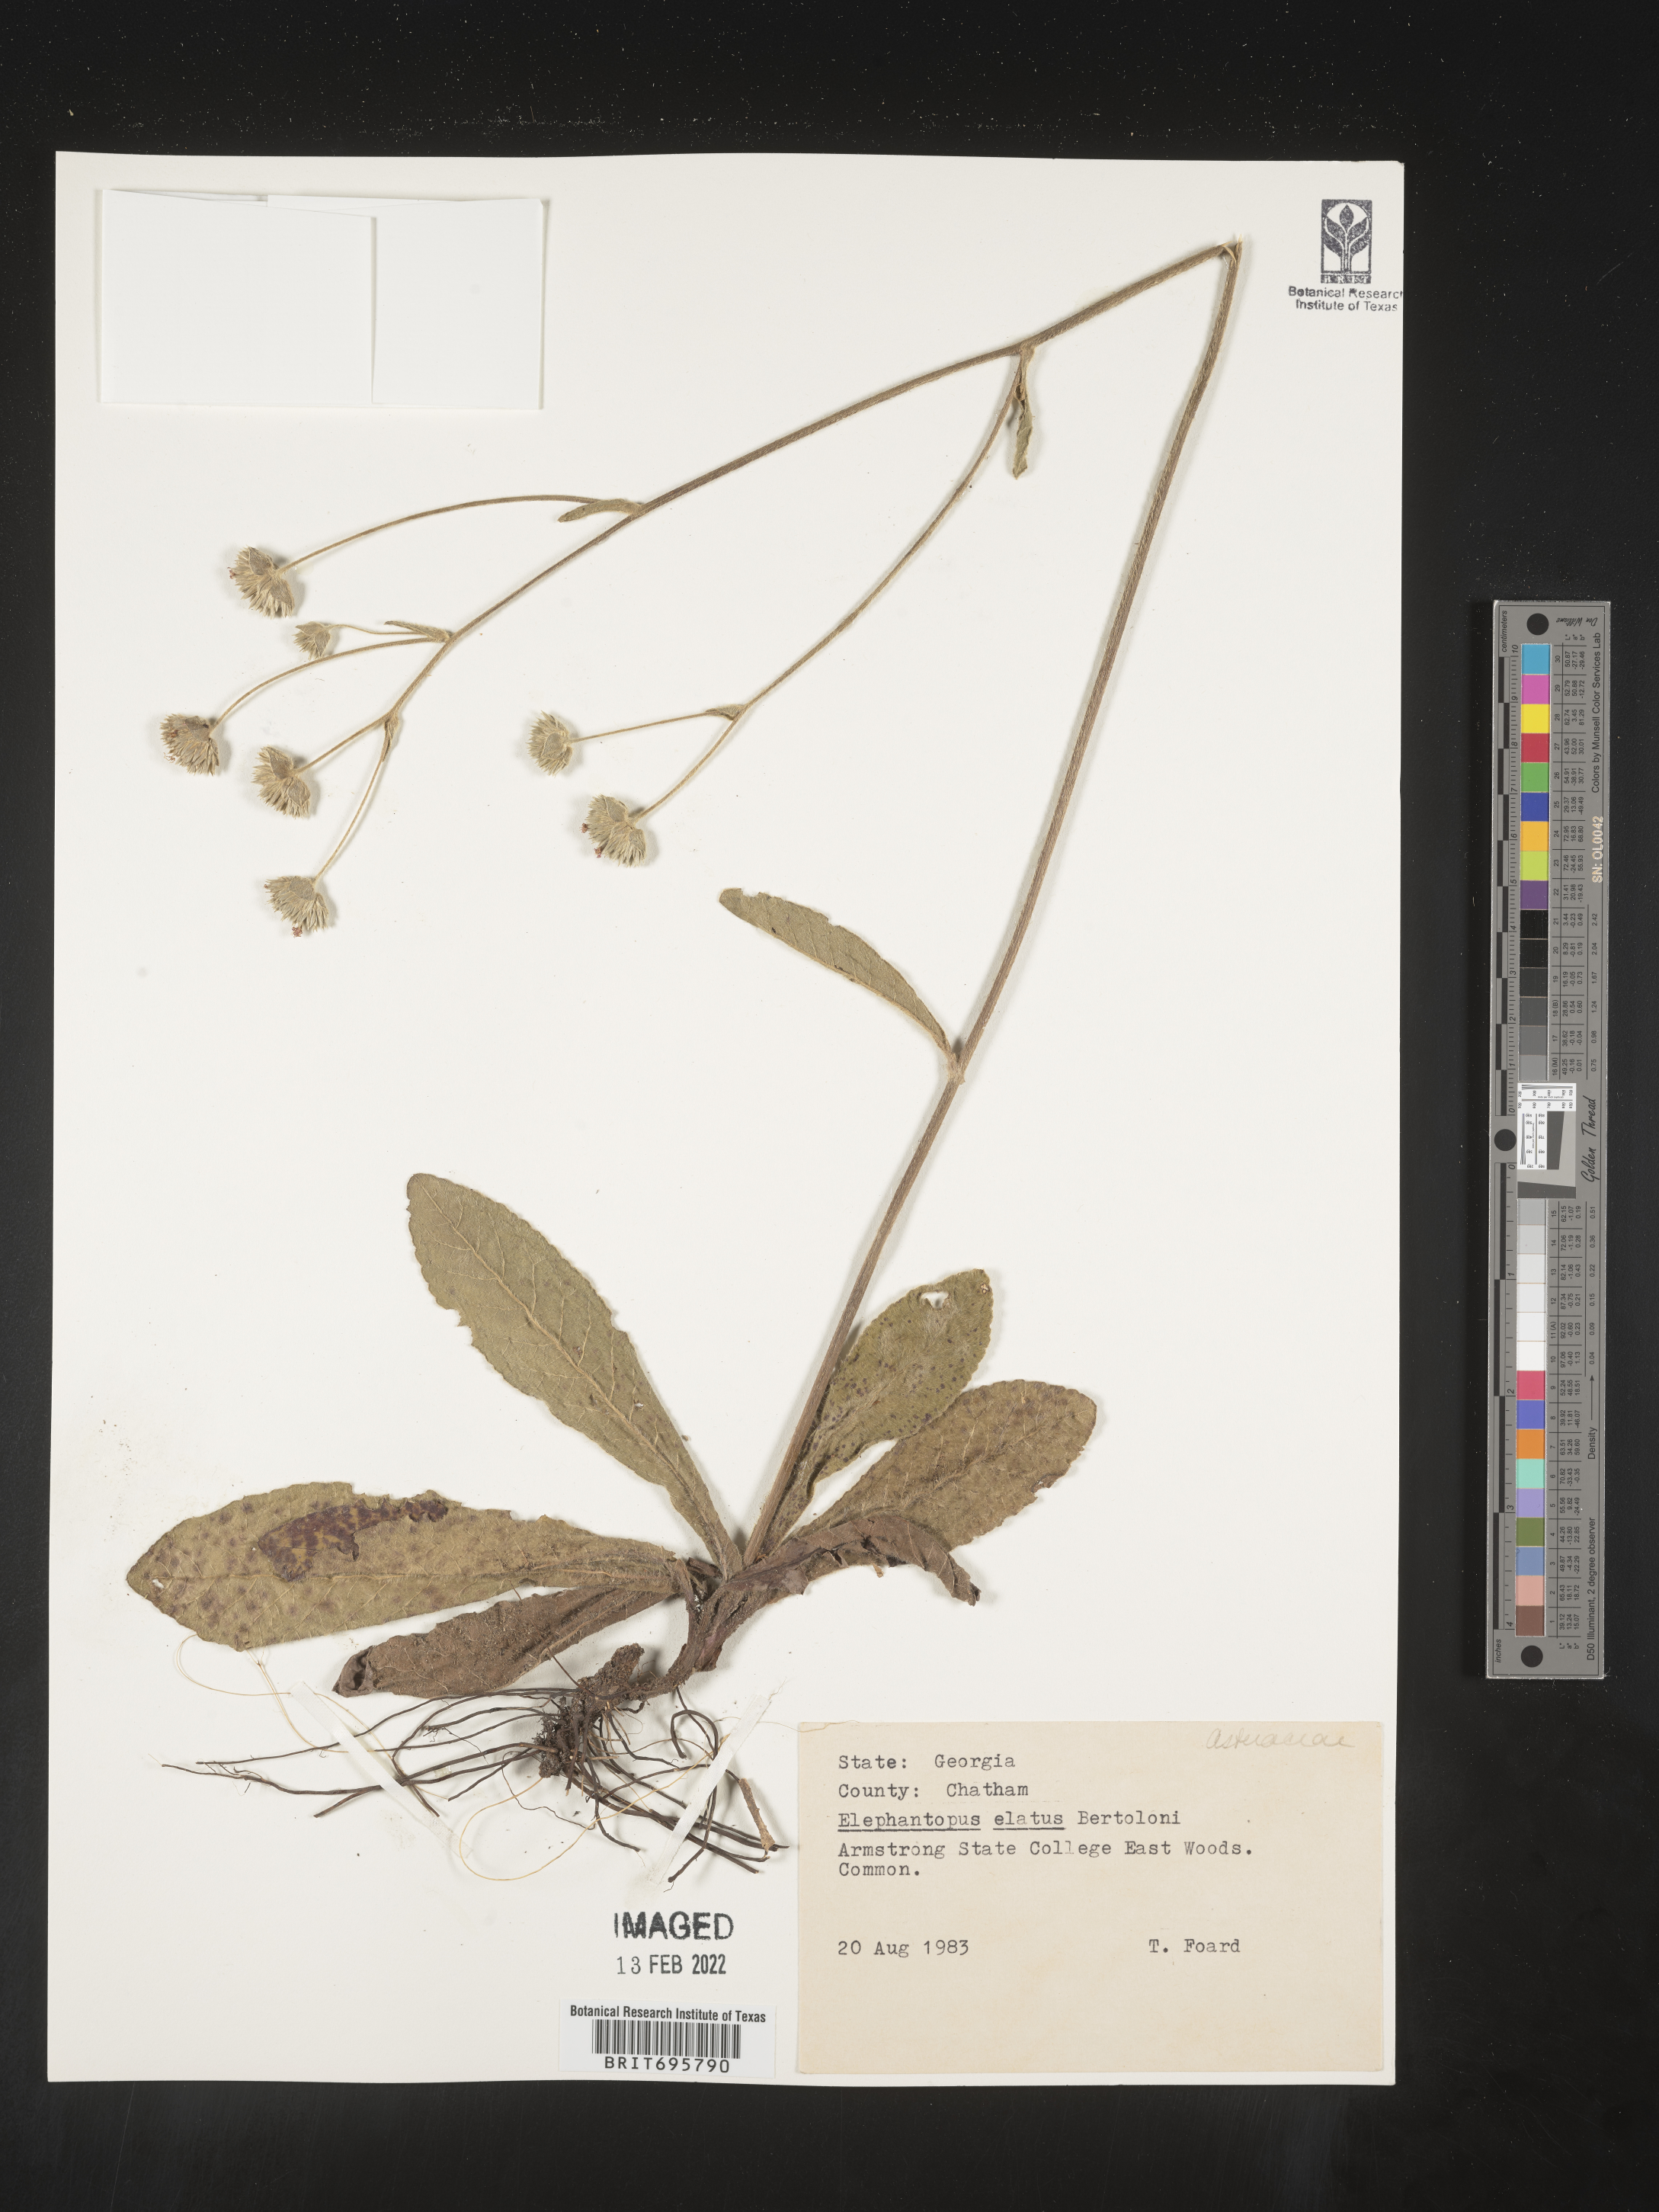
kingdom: Plantae
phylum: Tracheophyta
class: Magnoliopsida
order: Asterales
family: Asteraceae
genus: Elephantopus
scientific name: Elephantopus elatus
